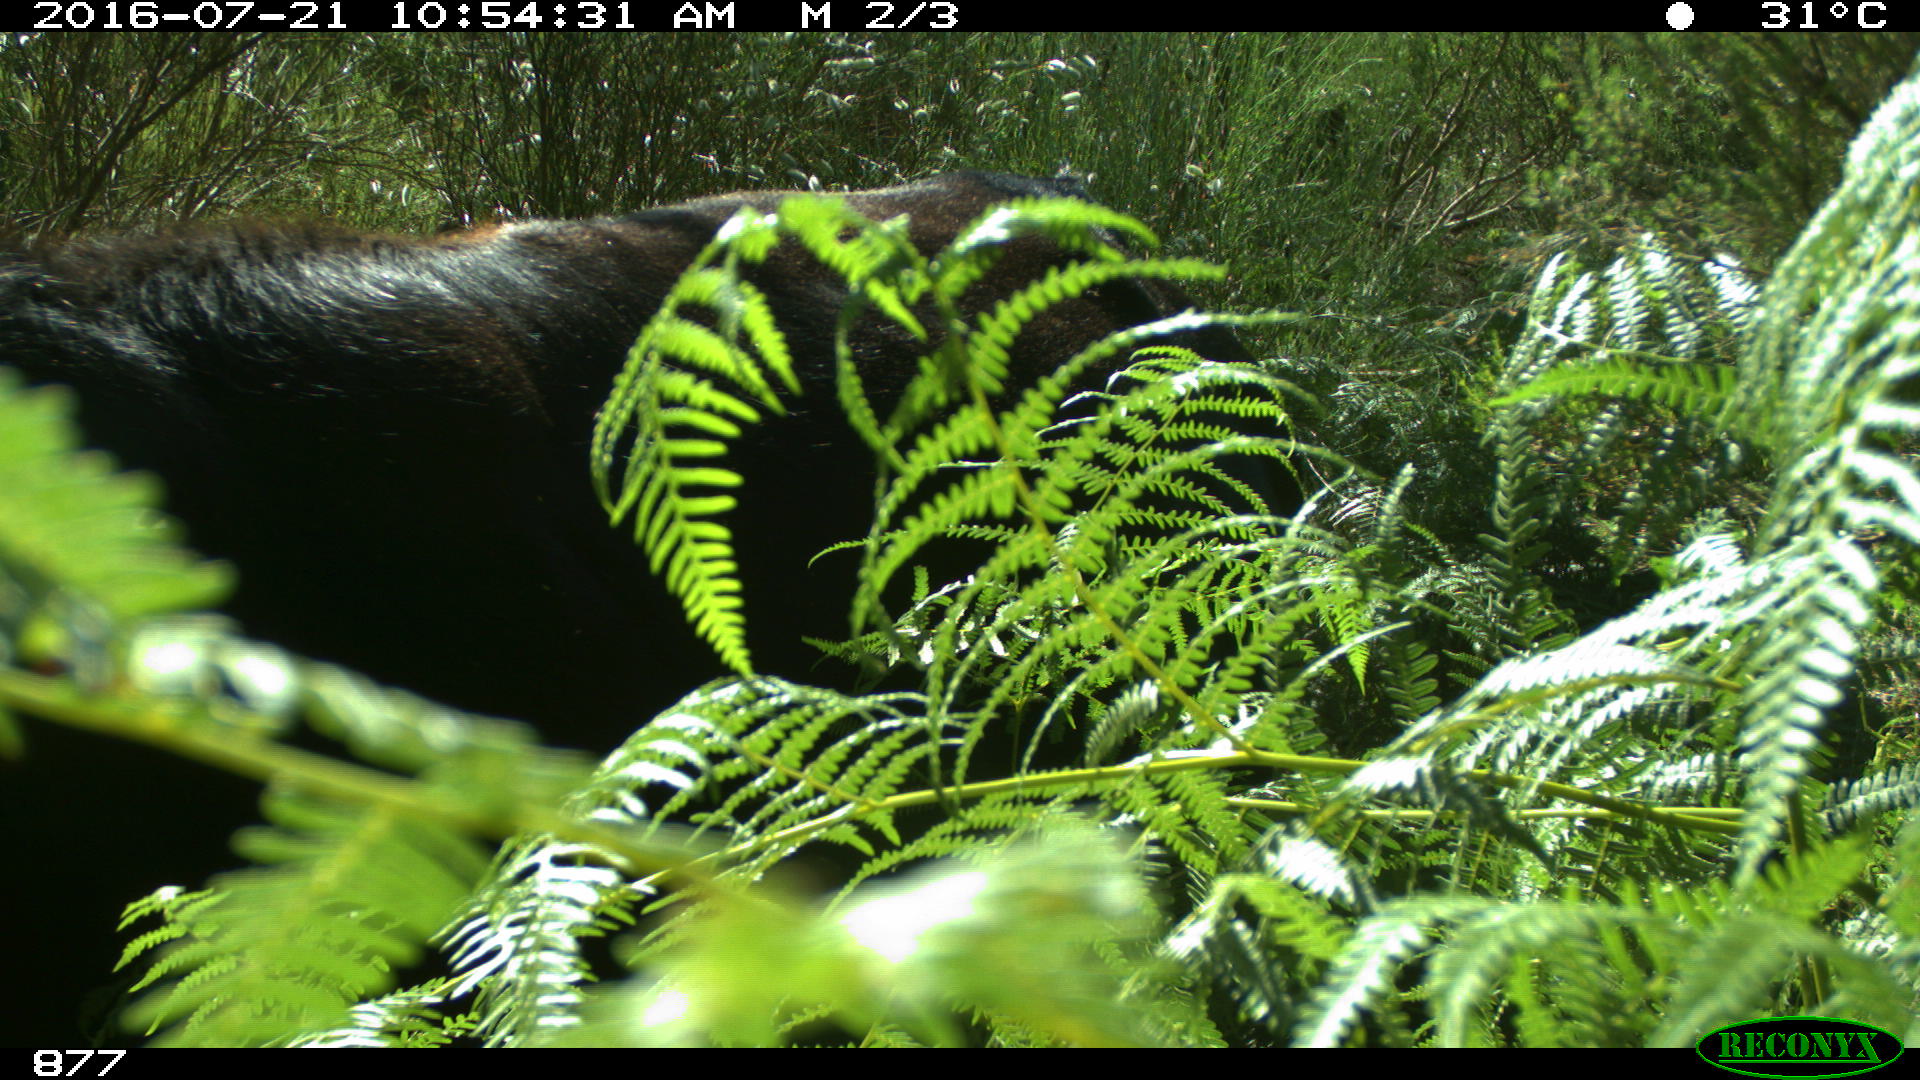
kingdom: Animalia
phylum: Chordata
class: Mammalia
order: Artiodactyla
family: Bovidae
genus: Bos
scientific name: Bos taurus
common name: Domesticated cattle
